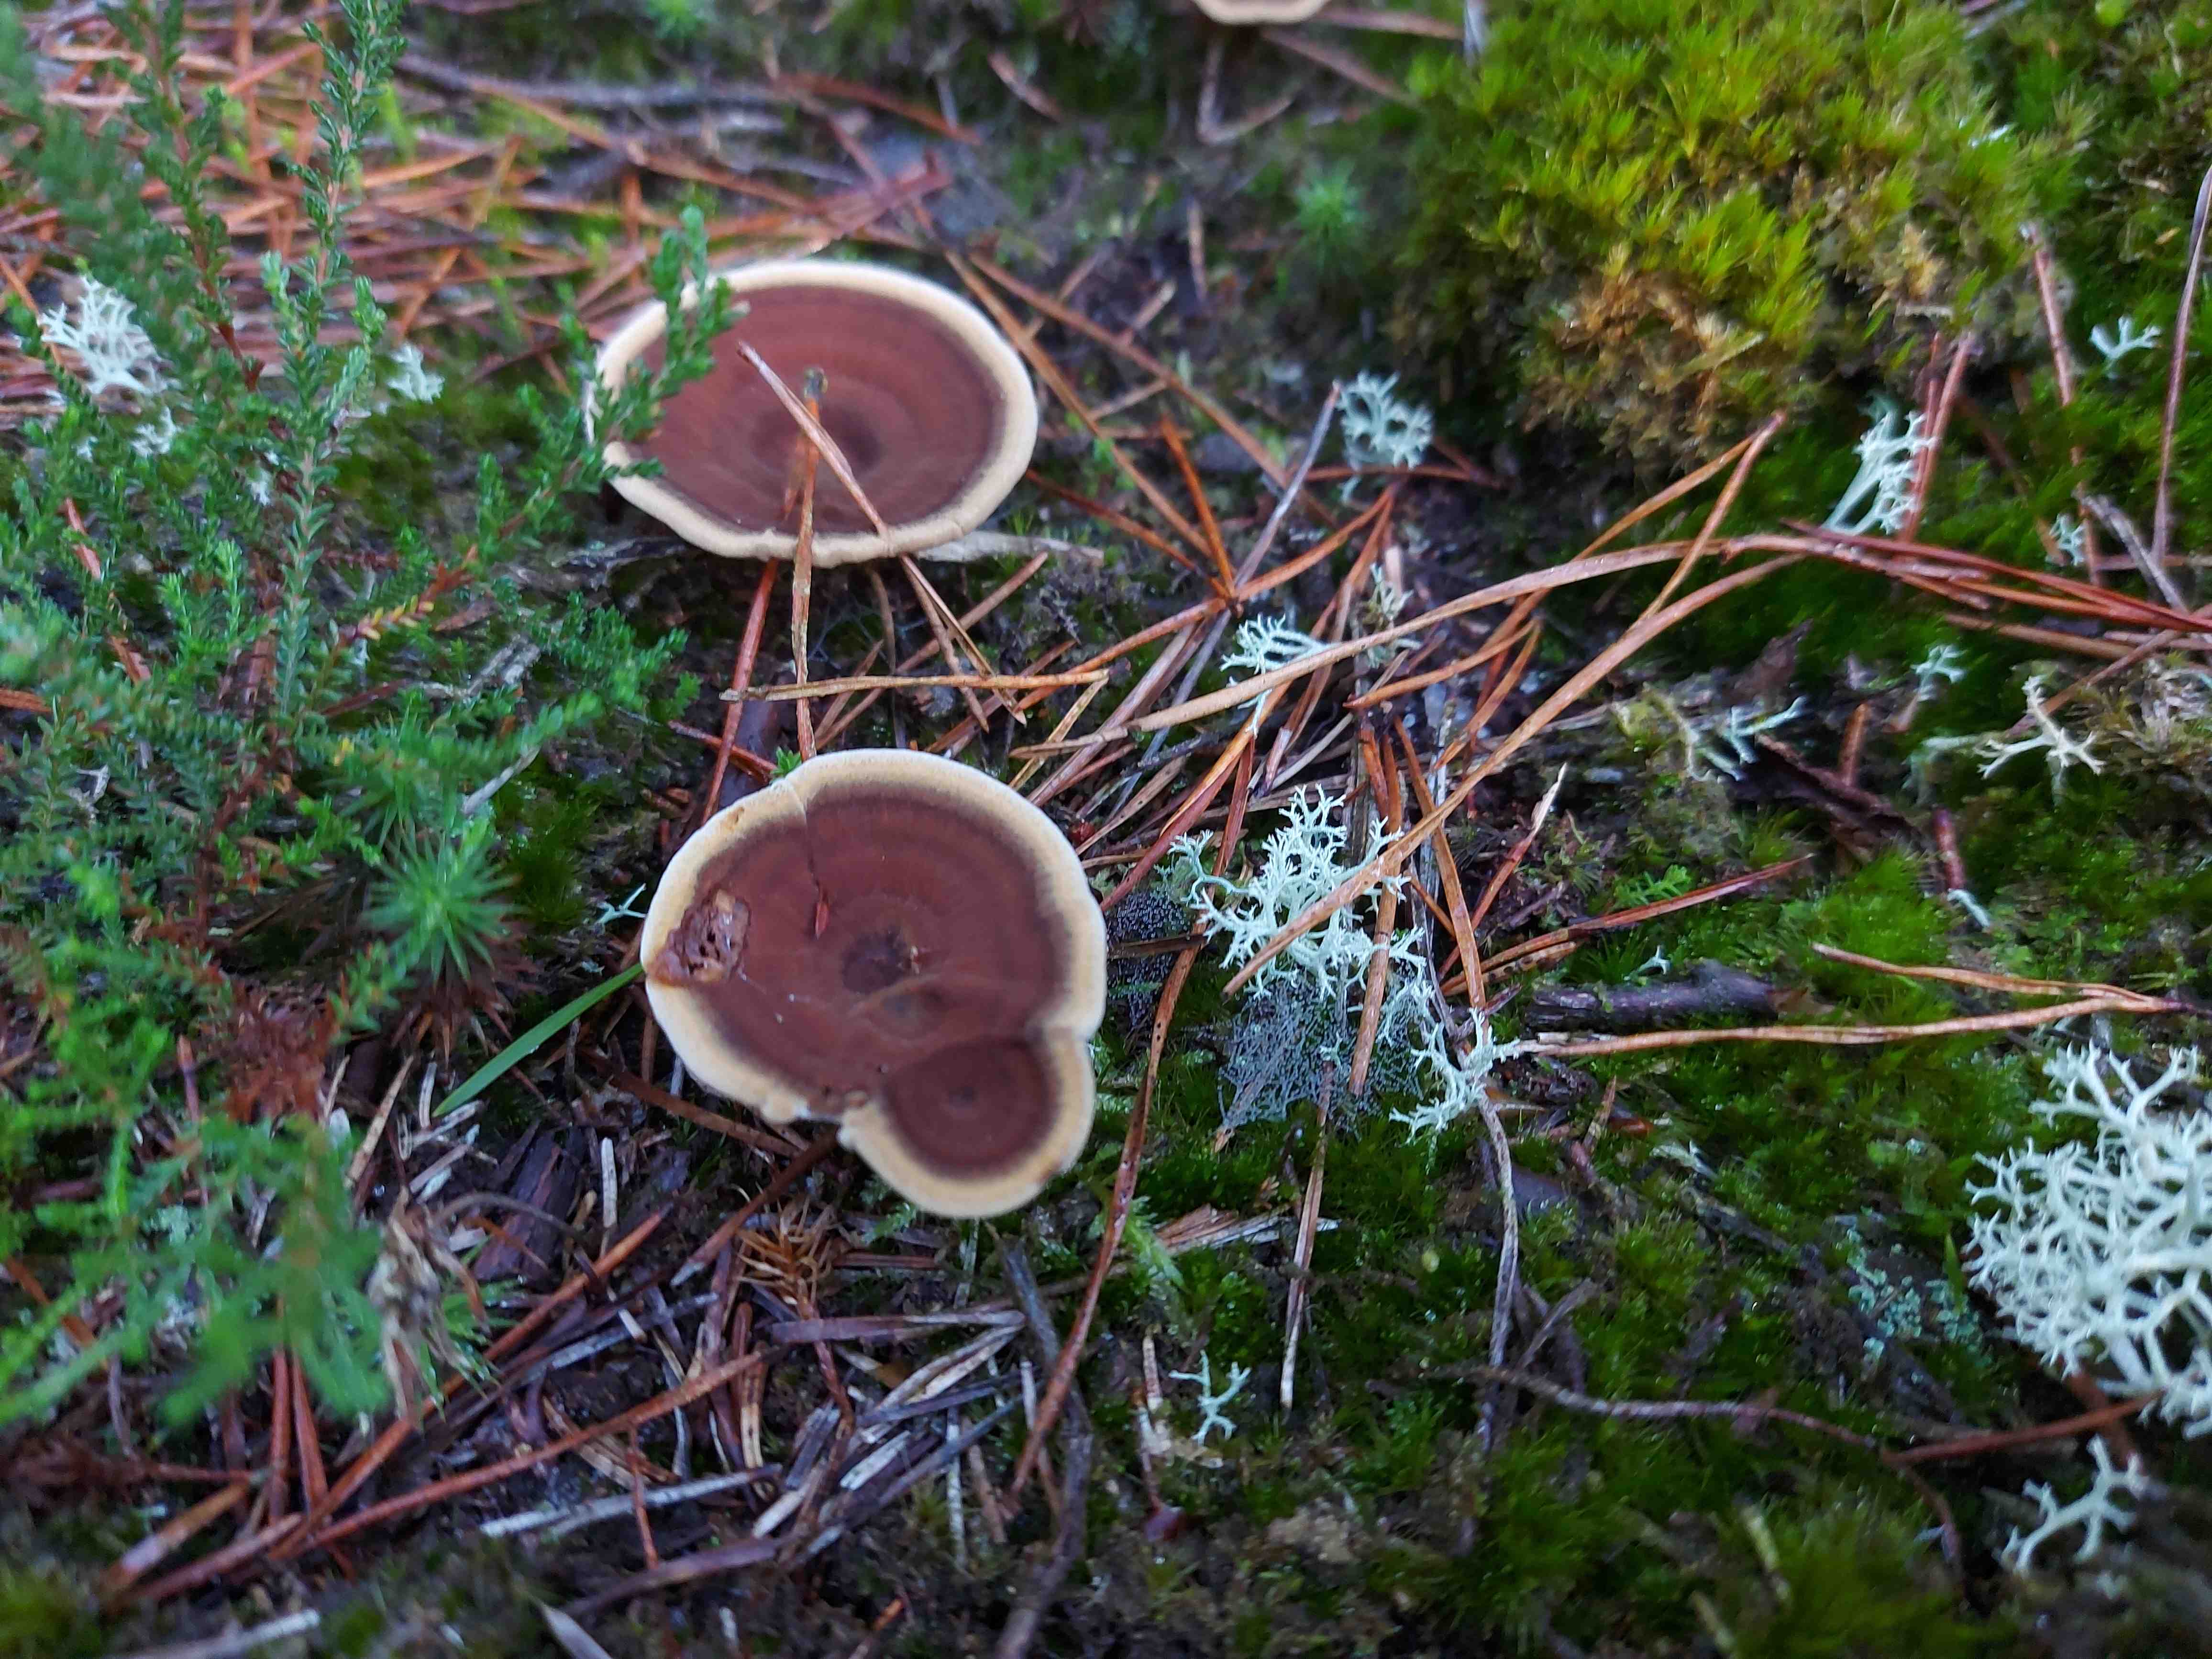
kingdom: Fungi
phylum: Basidiomycota
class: Agaricomycetes
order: Hymenochaetales
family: Hymenochaetaceae
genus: Coltricia
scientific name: Coltricia perennis
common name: almindelig sandporesvamp
